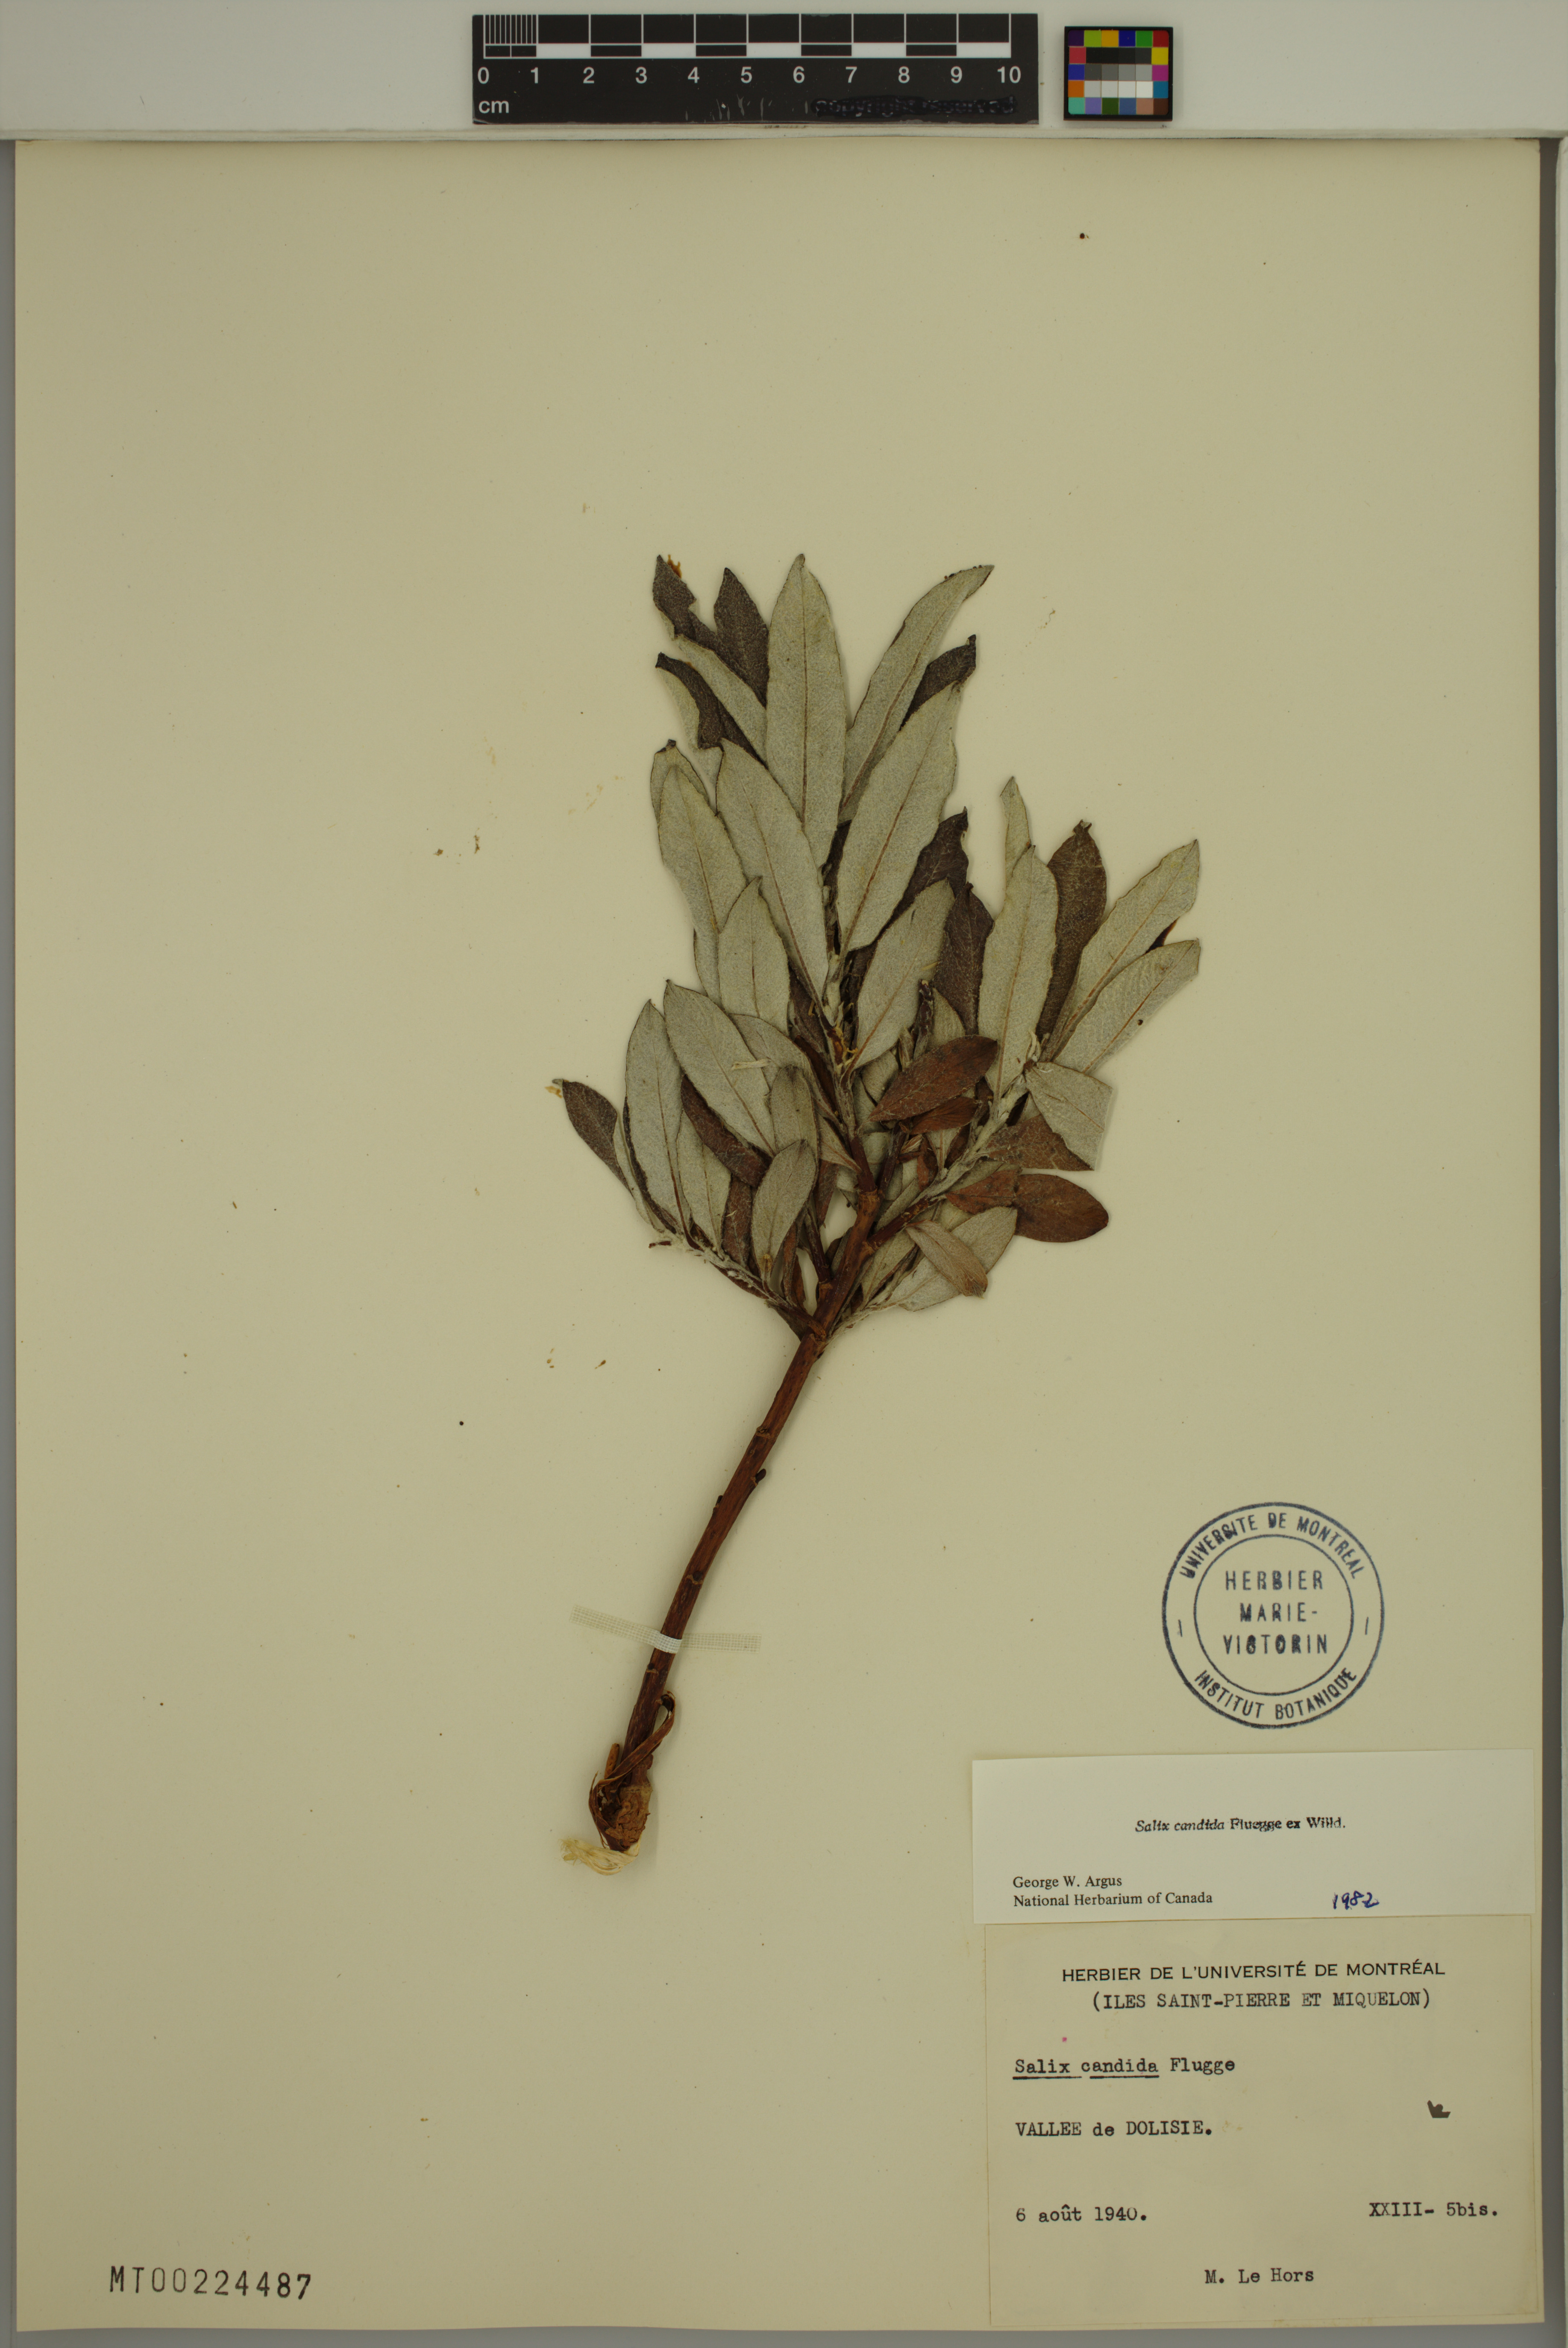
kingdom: Plantae
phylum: Tracheophyta
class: Magnoliopsida
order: Malpighiales
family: Salicaceae
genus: Salix
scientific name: Salix candida
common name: Hoary willow
